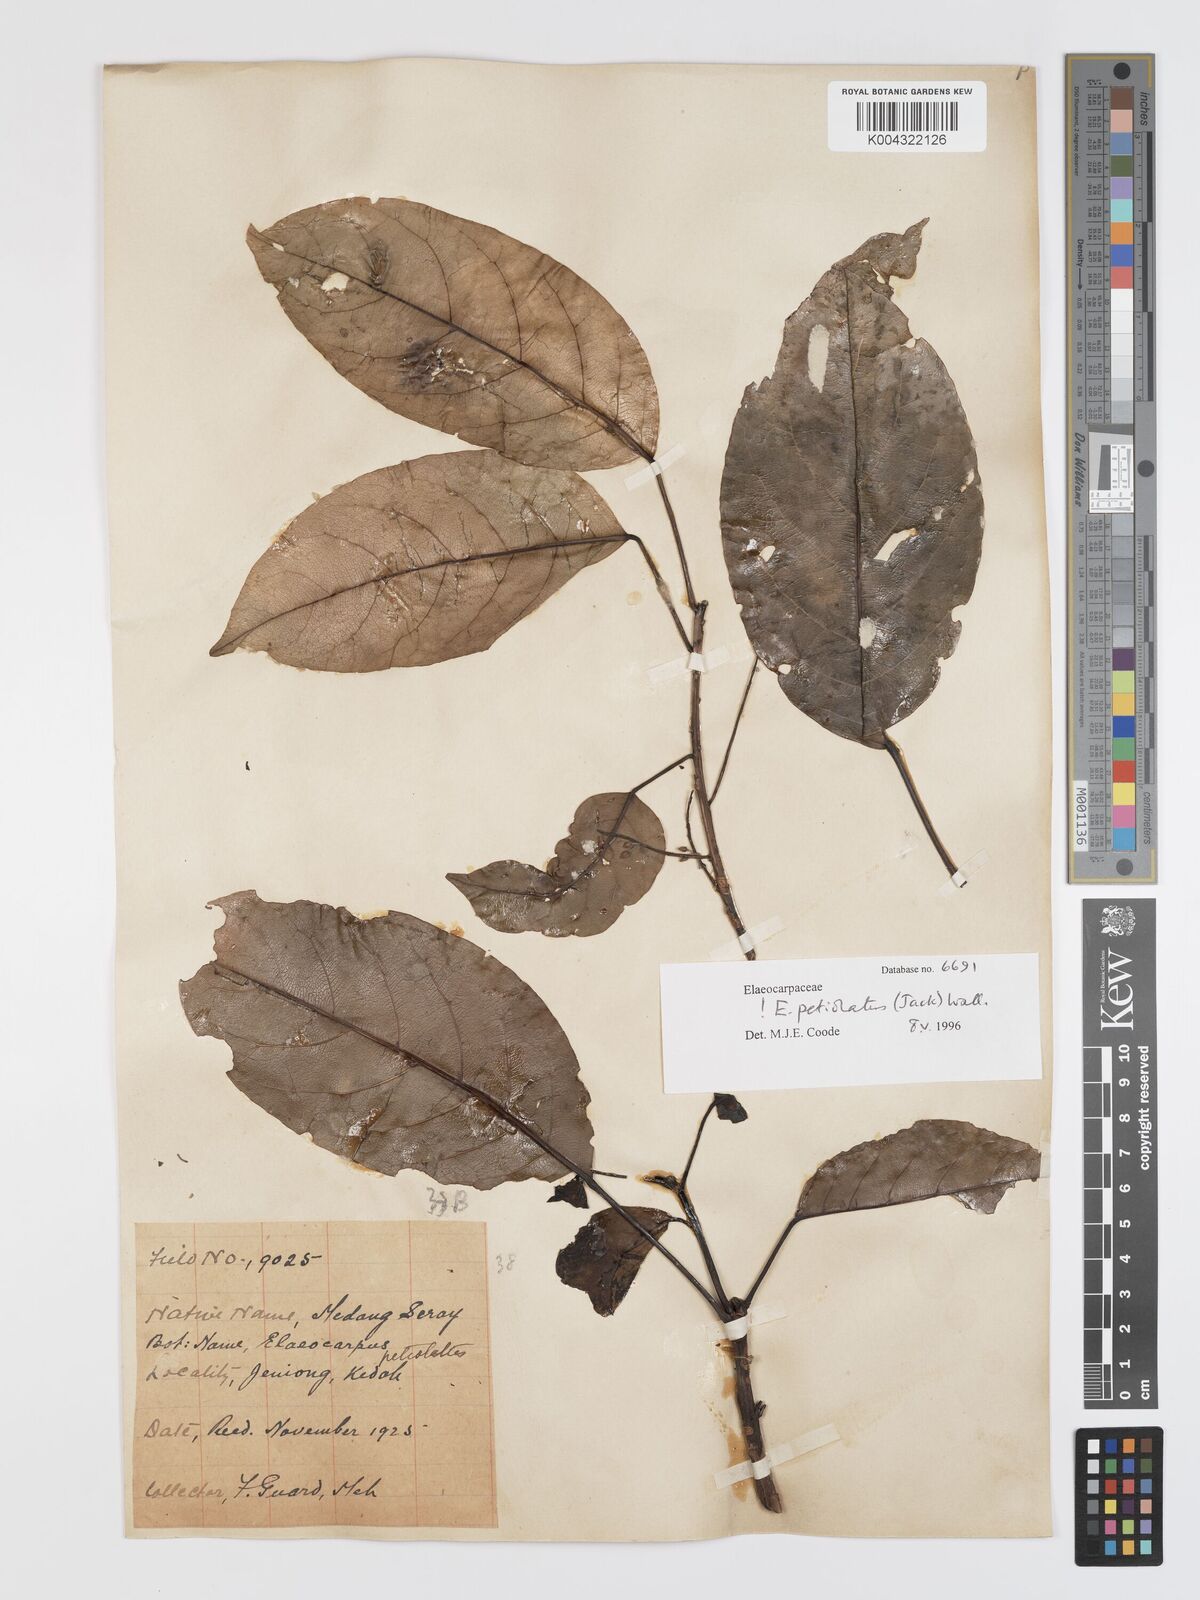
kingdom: Plantae
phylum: Tracheophyta
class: Magnoliopsida
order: Oxalidales
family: Elaeocarpaceae
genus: Elaeocarpus
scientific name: Elaeocarpus petiolatus
